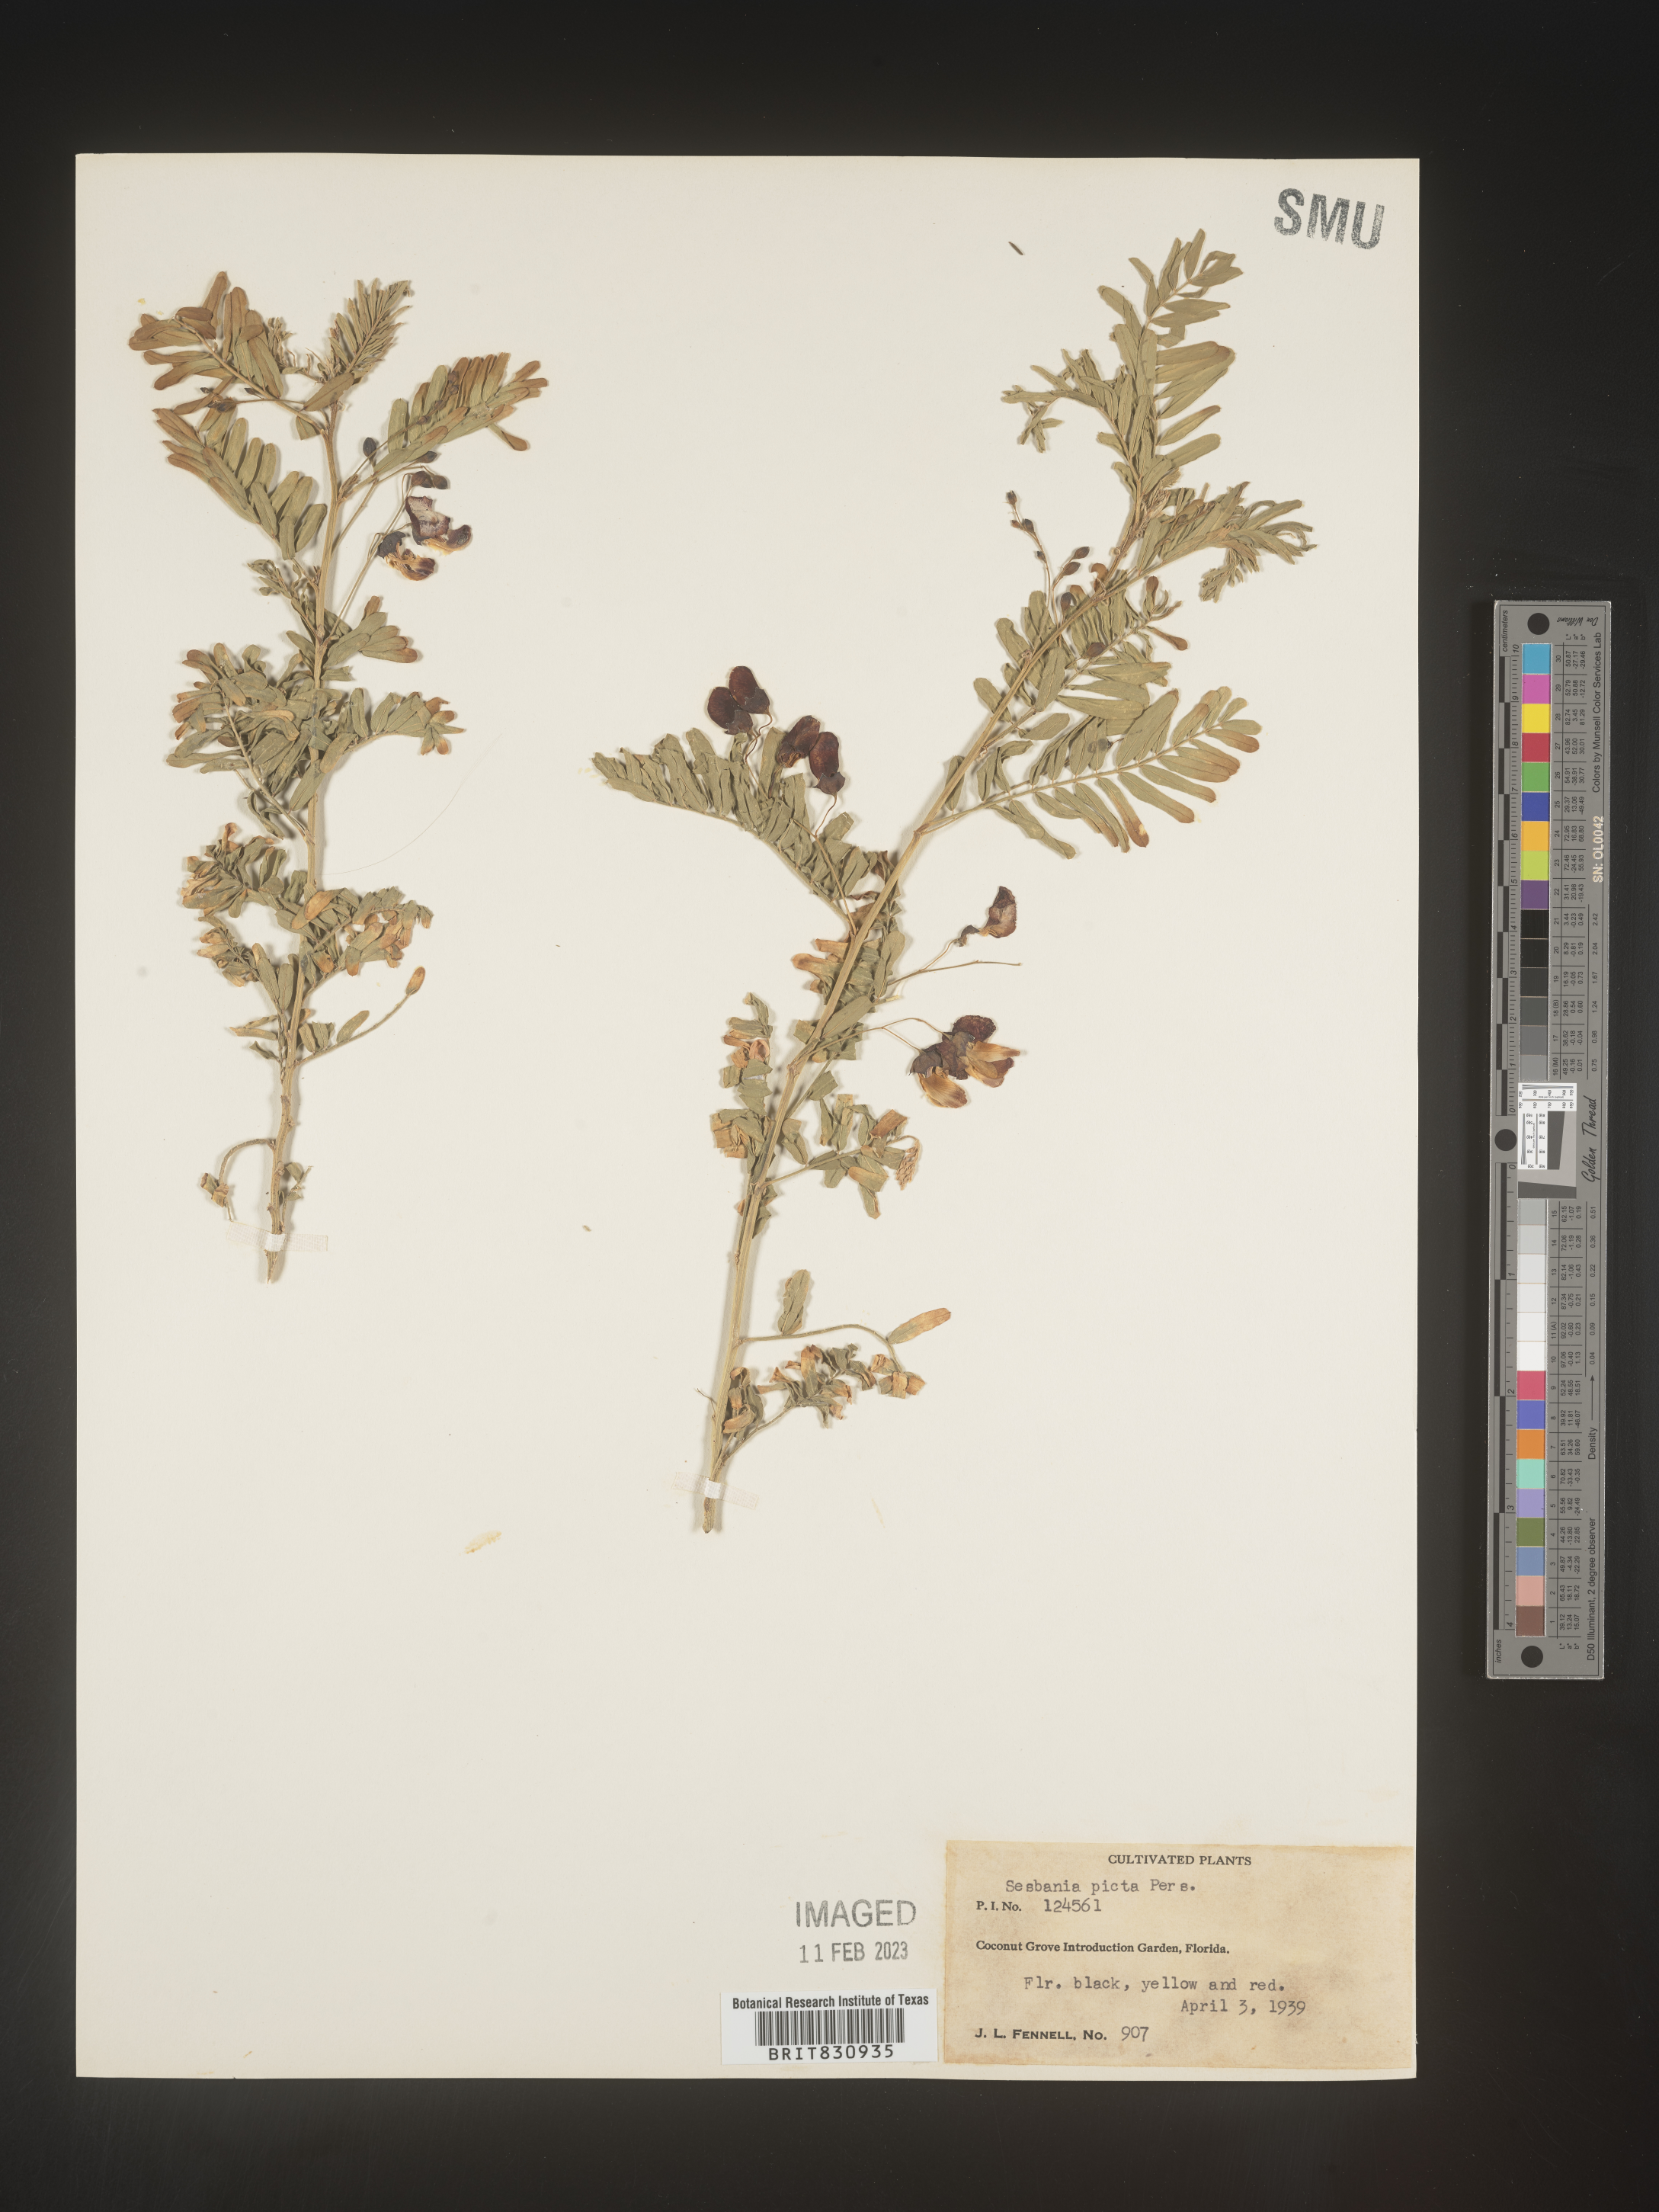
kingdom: Plantae
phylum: Tracheophyta
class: Magnoliopsida
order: Fabales
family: Fabaceae
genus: Sesbania
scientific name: Sesbania
